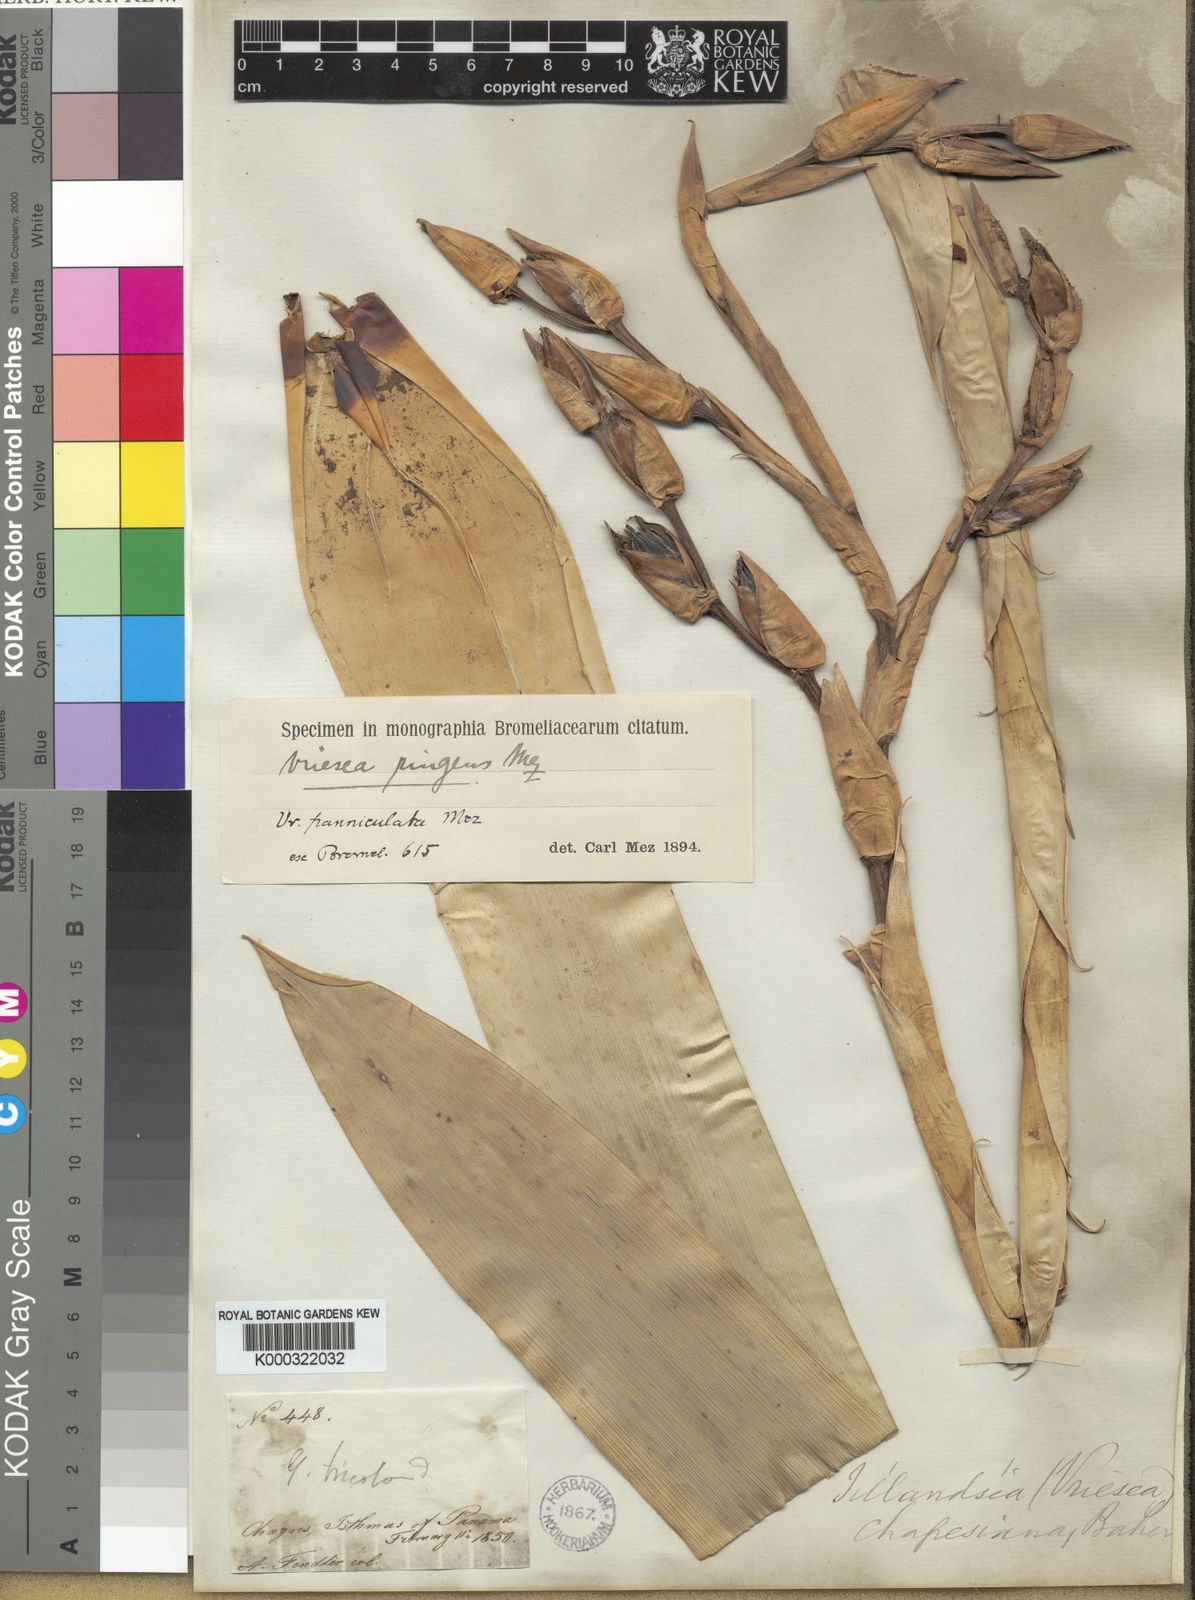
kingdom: Plantae
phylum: Tracheophyta
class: Liliopsida
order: Poales
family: Bromeliaceae
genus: Werauhia
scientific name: Werauhia ringens
